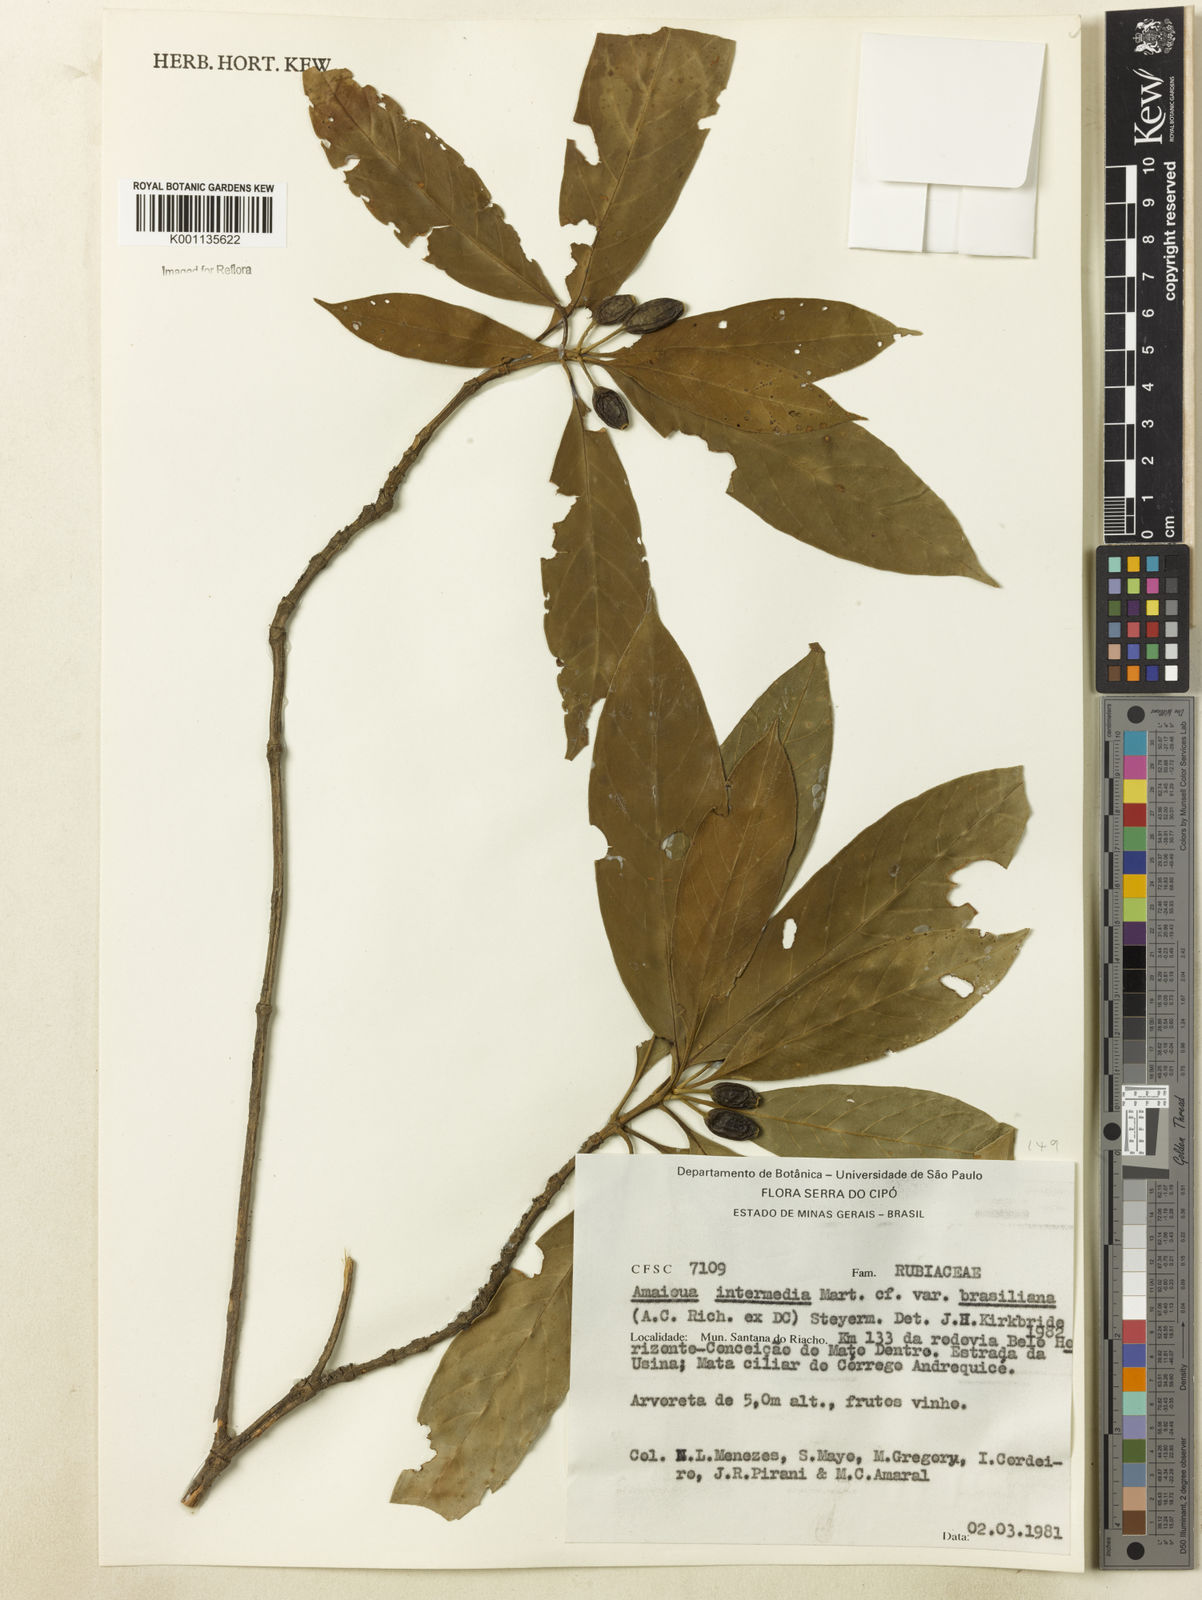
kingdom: Plantae
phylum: Tracheophyta
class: Magnoliopsida
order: Gentianales
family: Rubiaceae
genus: Amaioua
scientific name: Amaioua intermedia
